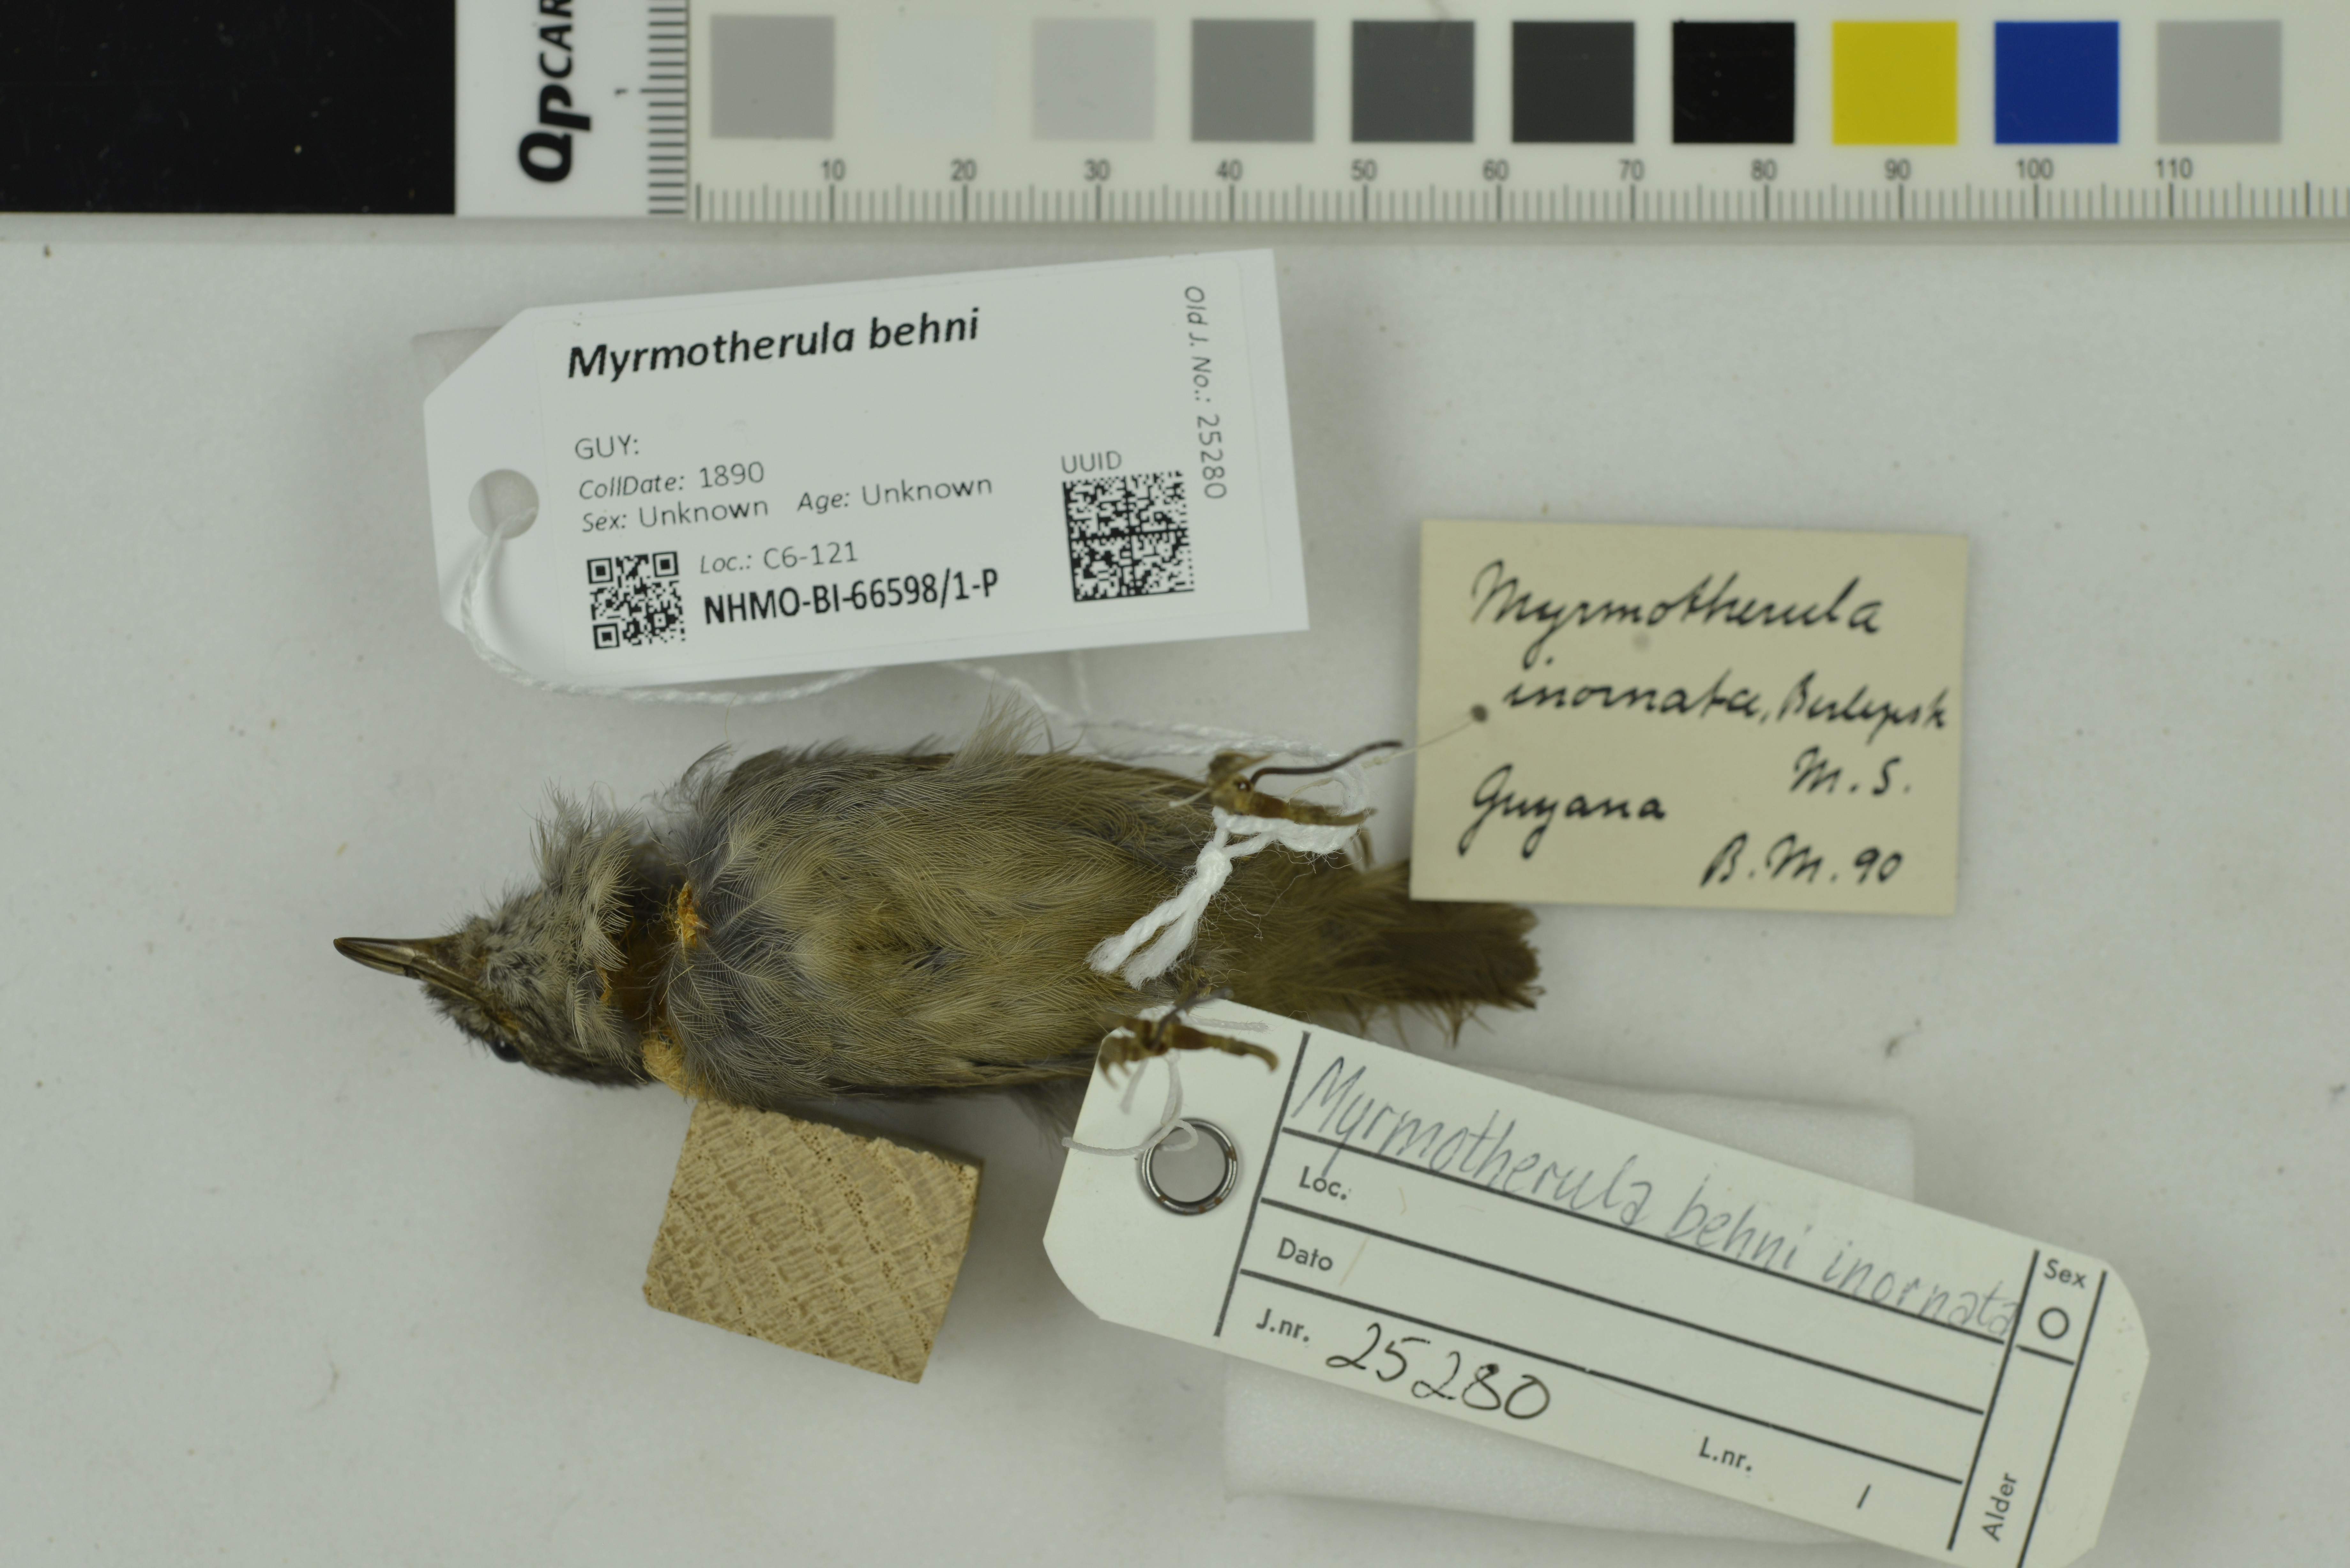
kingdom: Animalia
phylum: Chordata
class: Aves
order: Passeriformes
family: Thamnophilidae
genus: Myrmotherula
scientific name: Myrmotherula behni
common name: Plain-winged antwren
